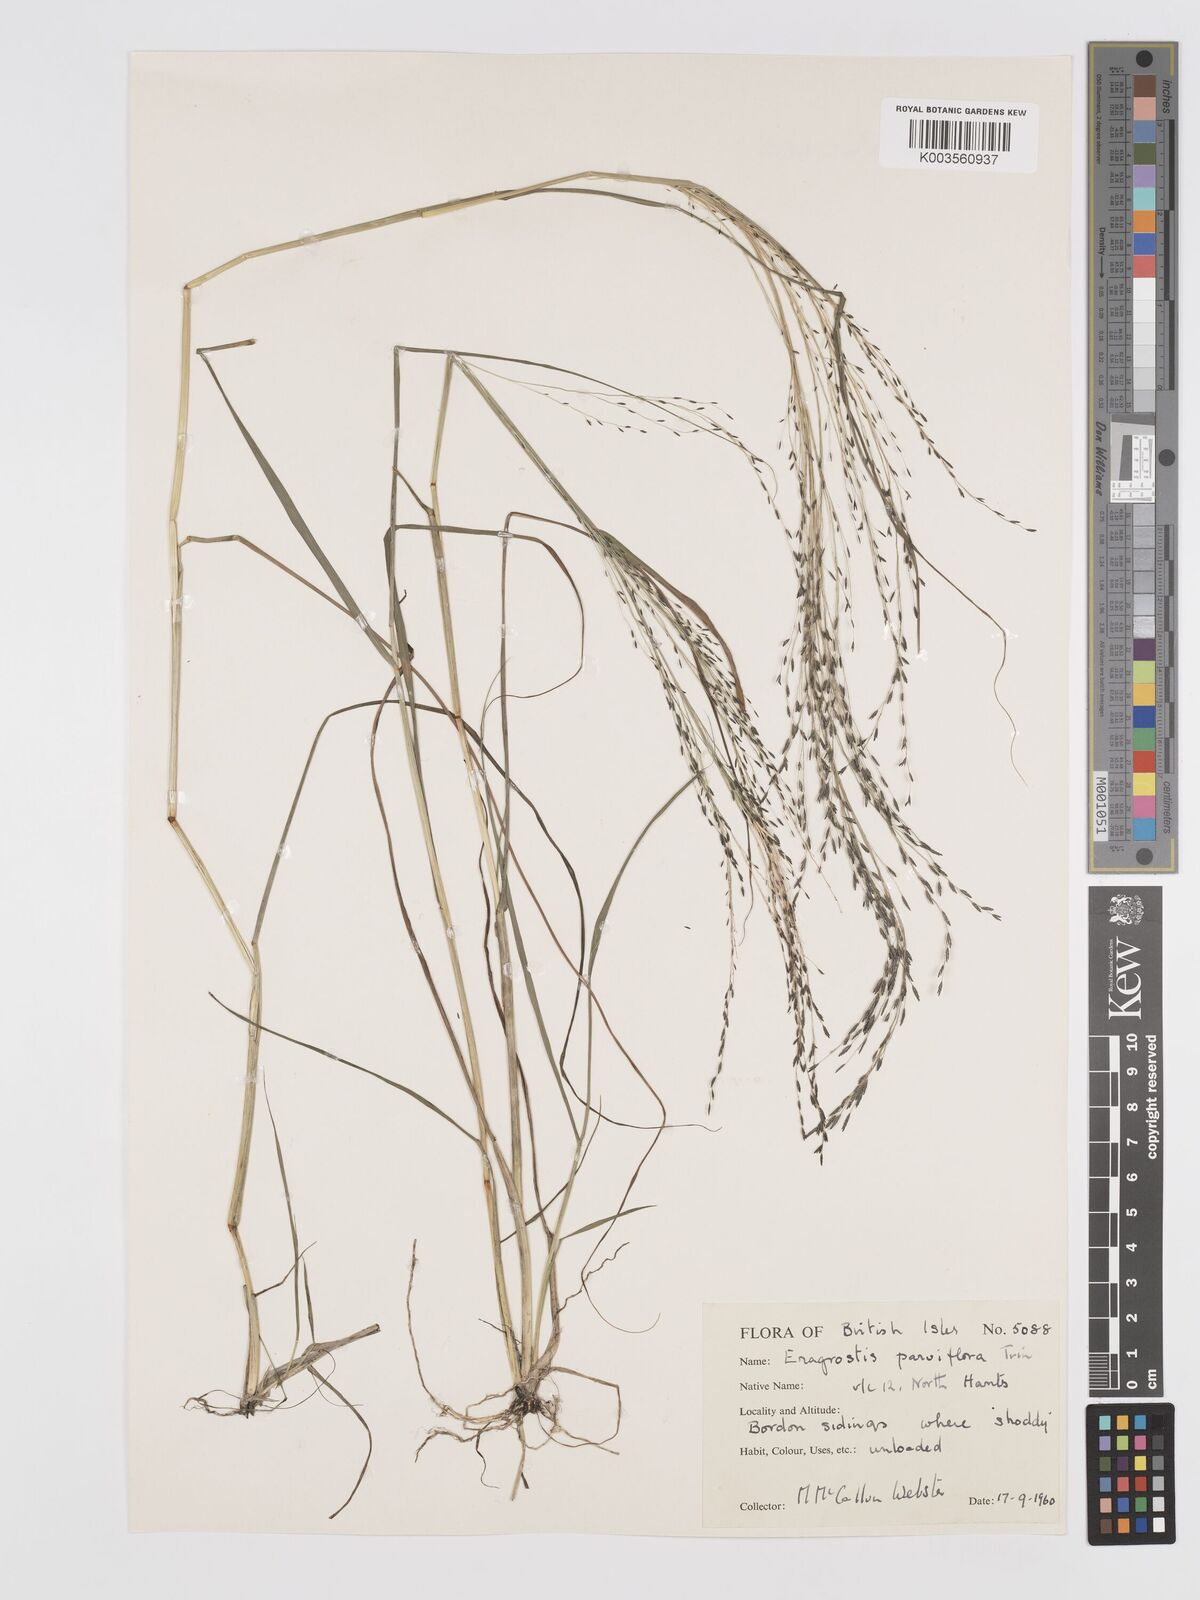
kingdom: Plantae
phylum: Tracheophyta
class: Liliopsida
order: Poales
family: Poaceae
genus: Eragrostis
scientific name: Eragrostis parviflora
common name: Weeping love-grass
